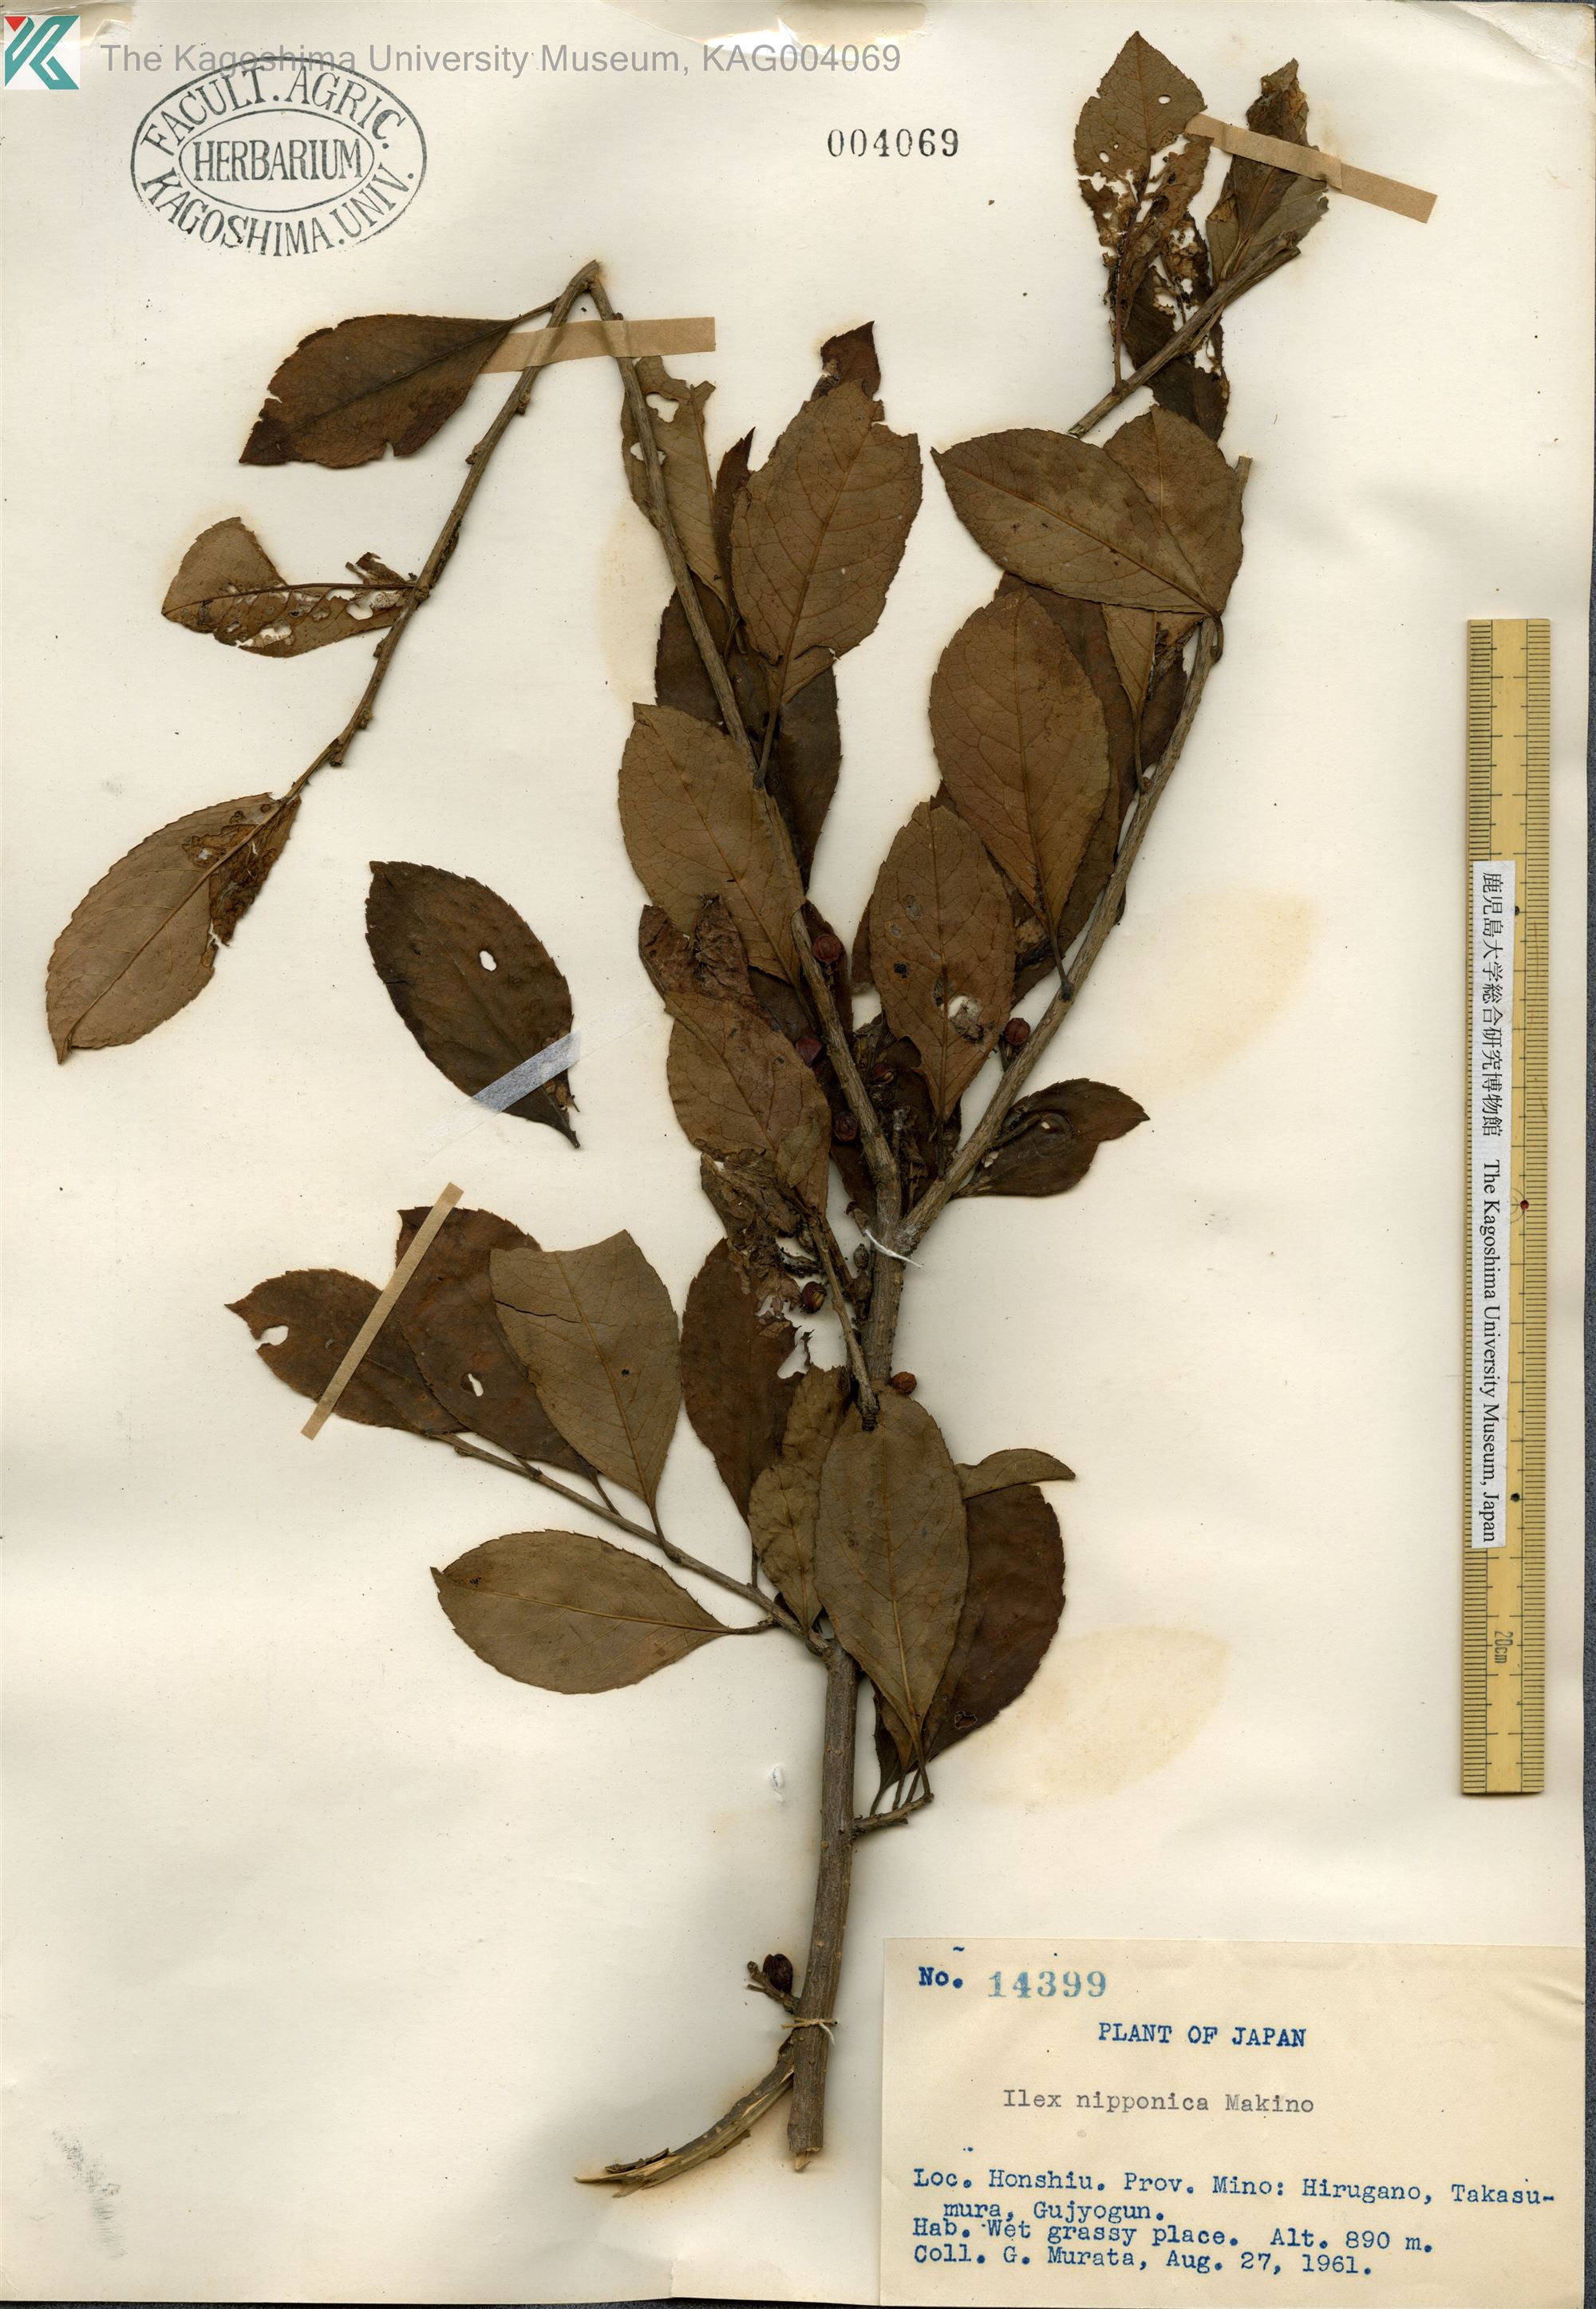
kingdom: Plantae
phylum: Tracheophyta
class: Magnoliopsida
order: Aquifoliales
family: Aquifoliaceae
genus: Ilex
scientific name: Ilex nipponica
